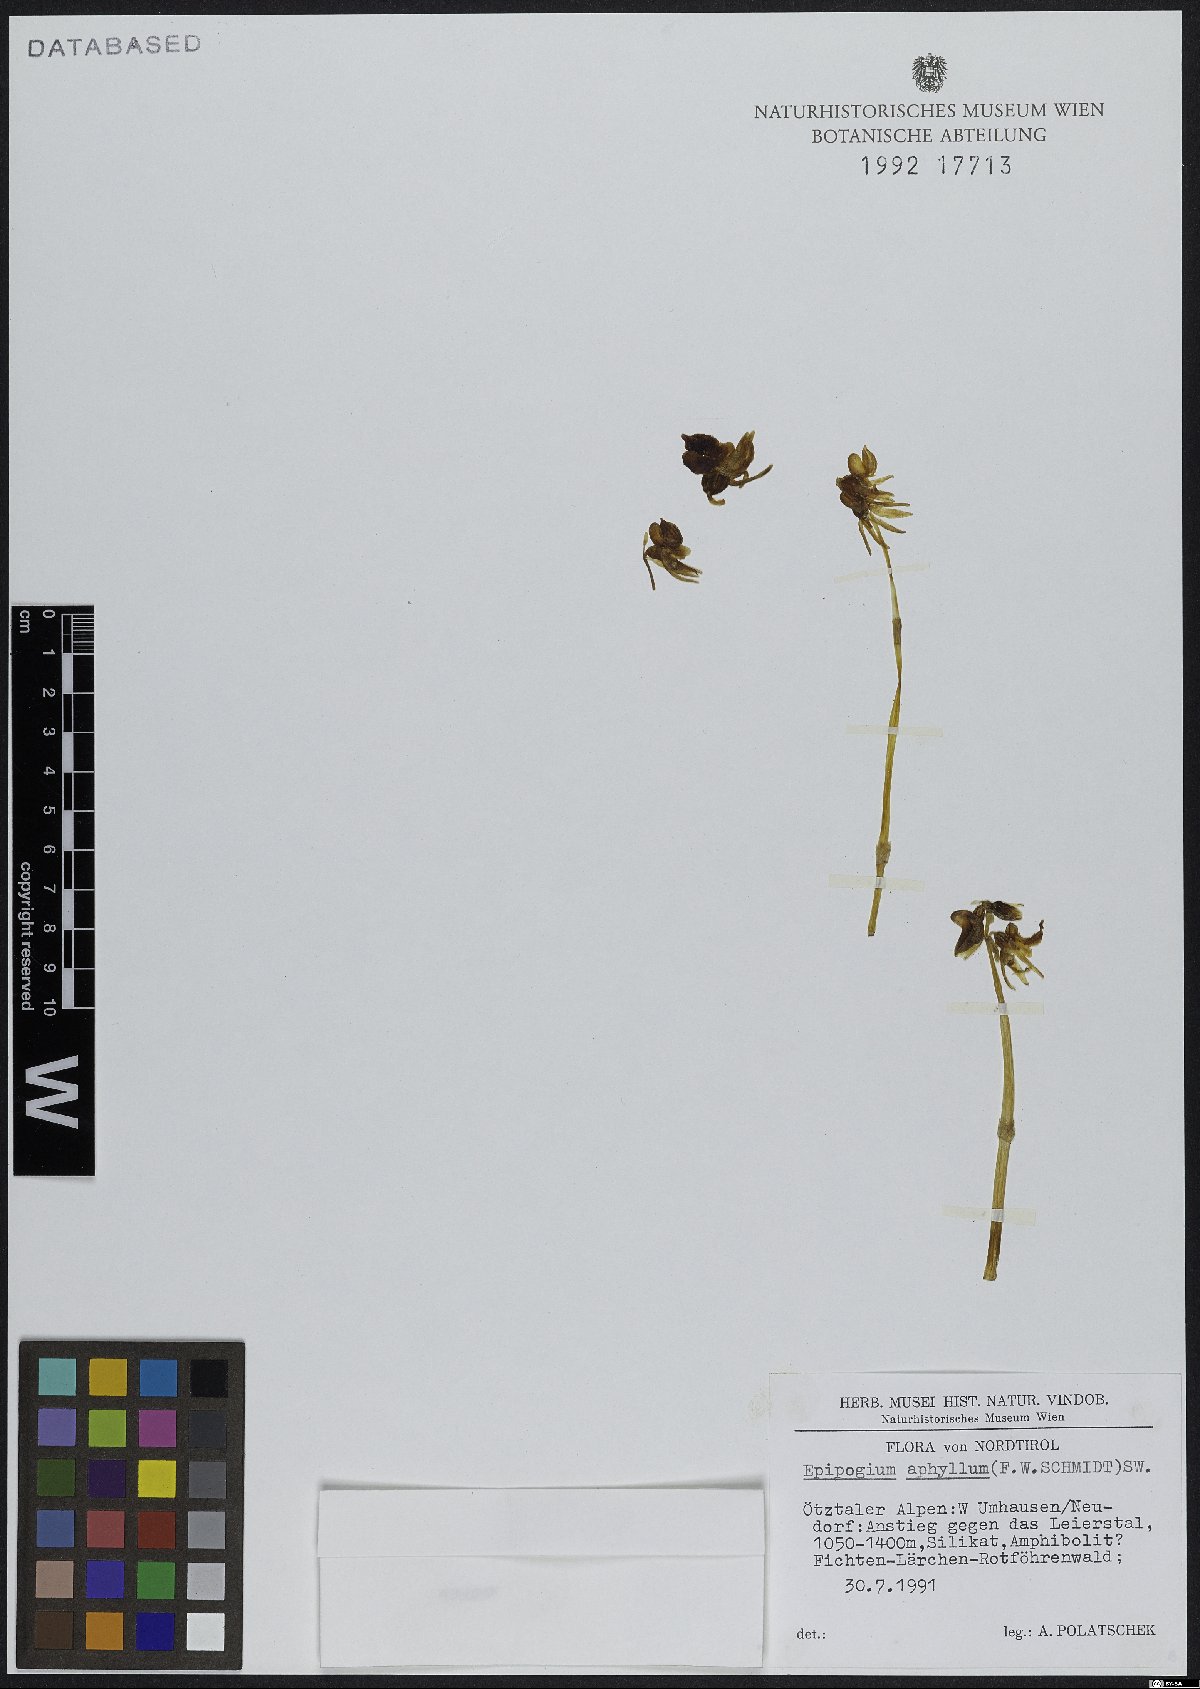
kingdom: Plantae
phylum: Tracheophyta
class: Liliopsida
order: Asparagales
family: Orchidaceae
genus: Epipogium
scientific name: Epipogium aphyllum
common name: Ghost orchid
